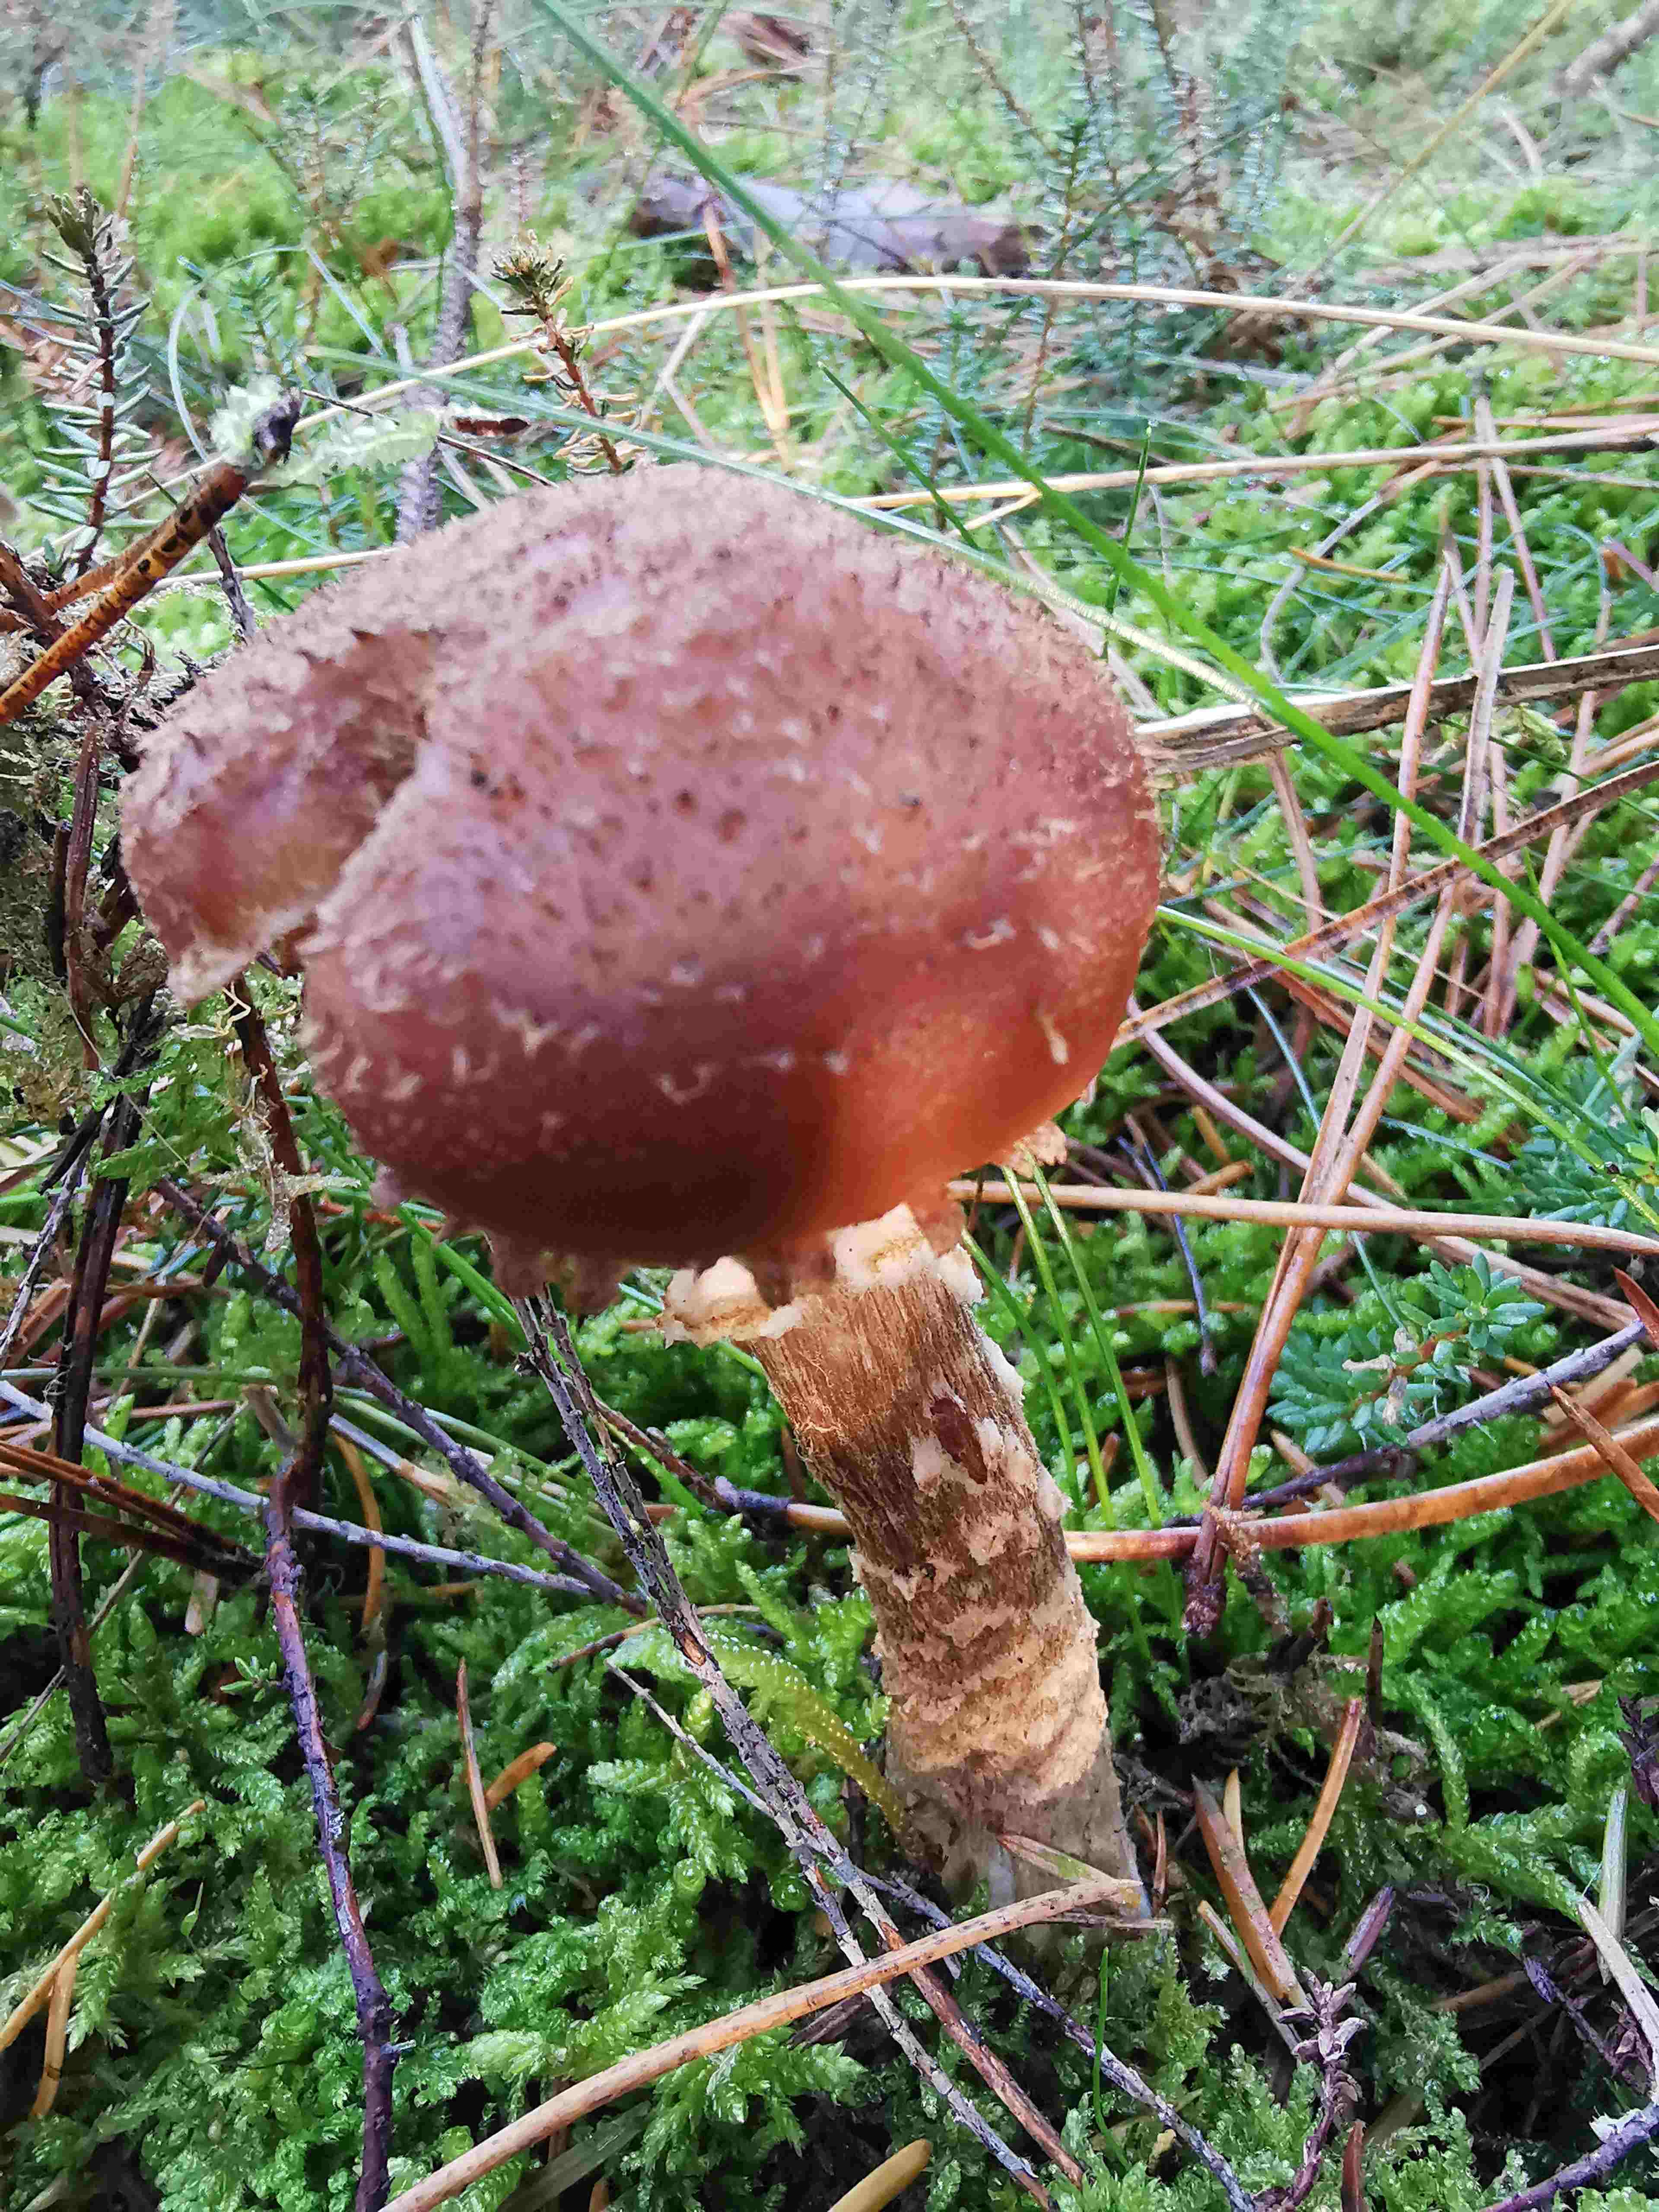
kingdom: Fungi
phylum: Basidiomycota
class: Agaricomycetes
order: Agaricales
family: Physalacriaceae
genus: Armillaria
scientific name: Armillaria ostoyae
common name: mørk honningsvamp
